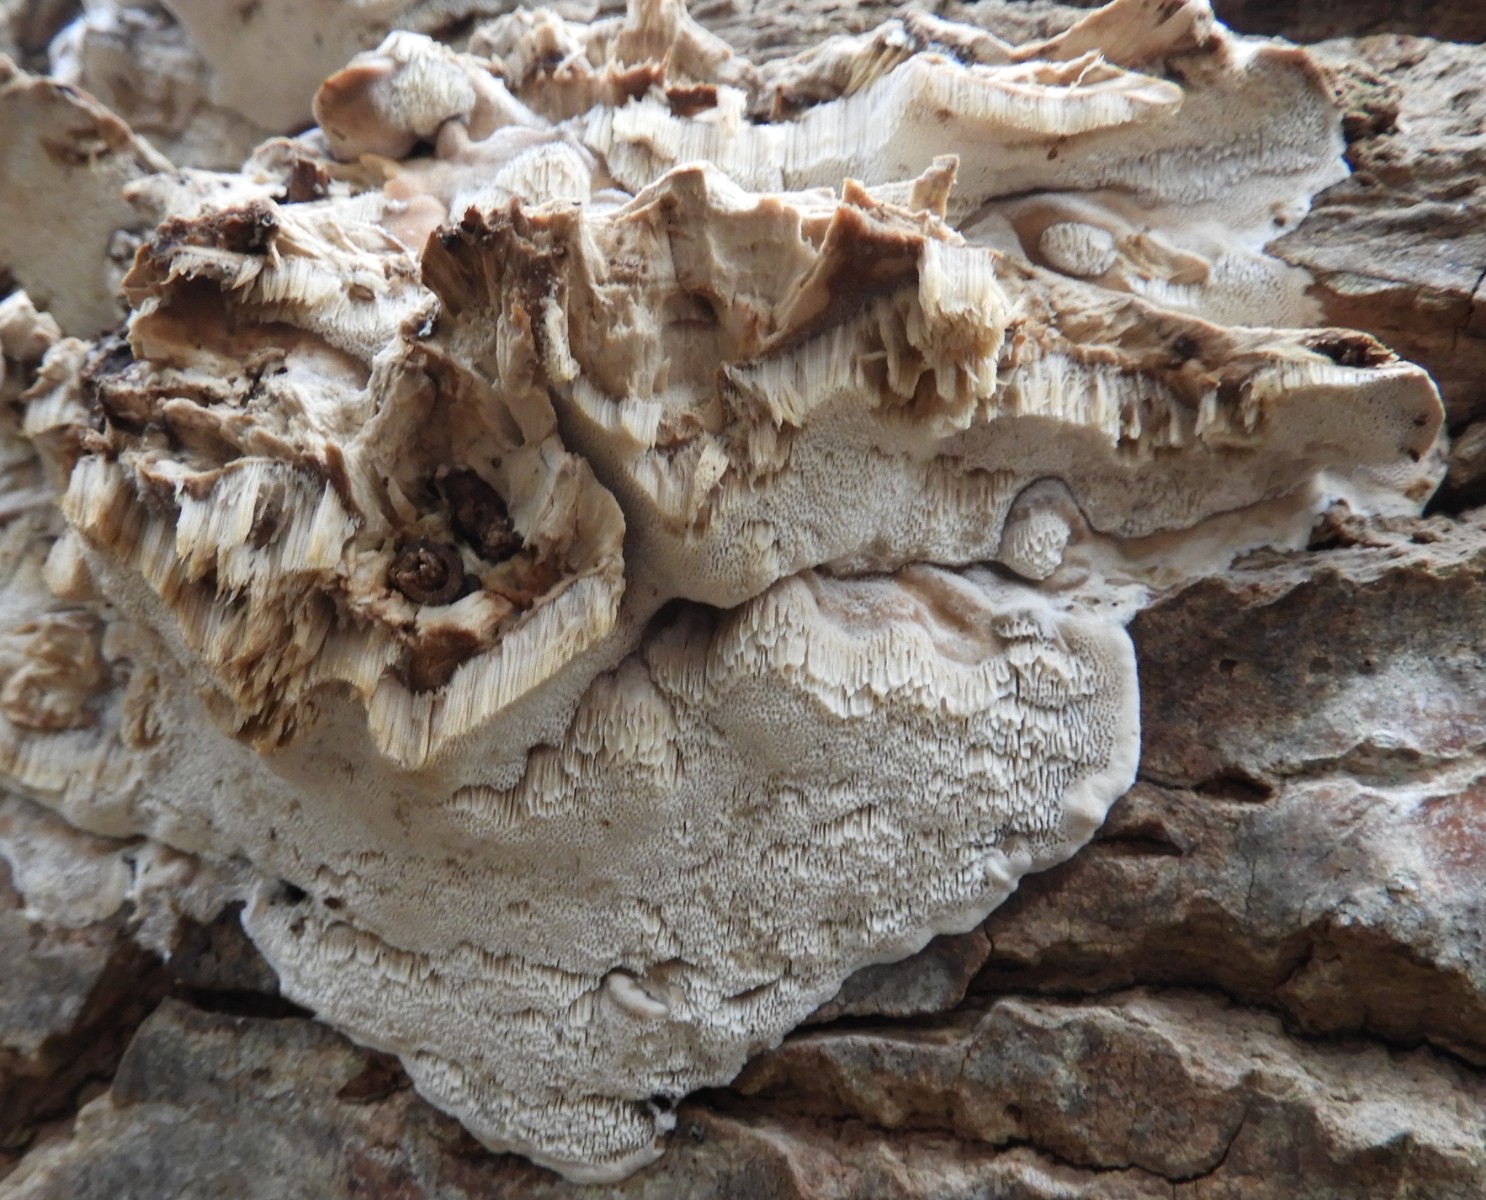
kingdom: Fungi
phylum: Basidiomycota
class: Agaricomycetes
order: Polyporales
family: Phanerochaetaceae
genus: Bjerkandera
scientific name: Bjerkandera fumosa
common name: grågul sodporesvamp
